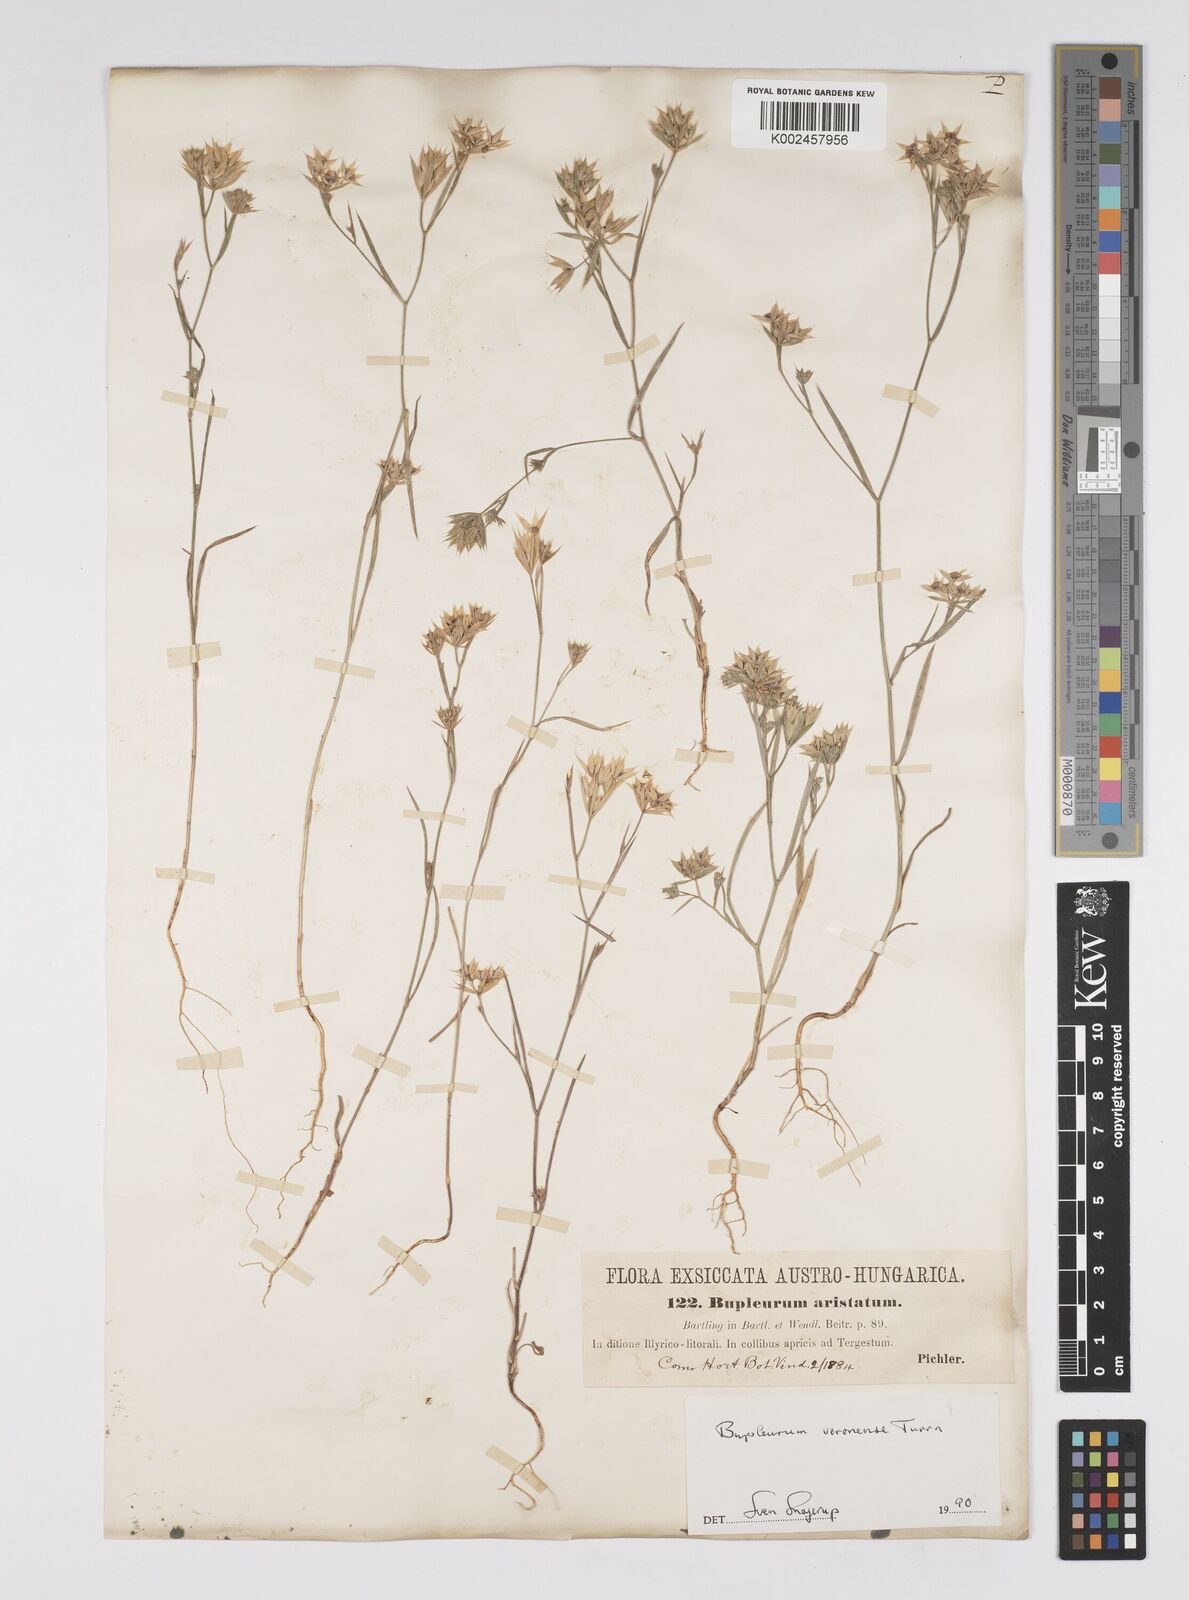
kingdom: Plantae
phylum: Tracheophyta
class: Magnoliopsida
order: Apiales
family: Apiaceae
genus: Bupleurum
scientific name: Bupleurum glumaceum
